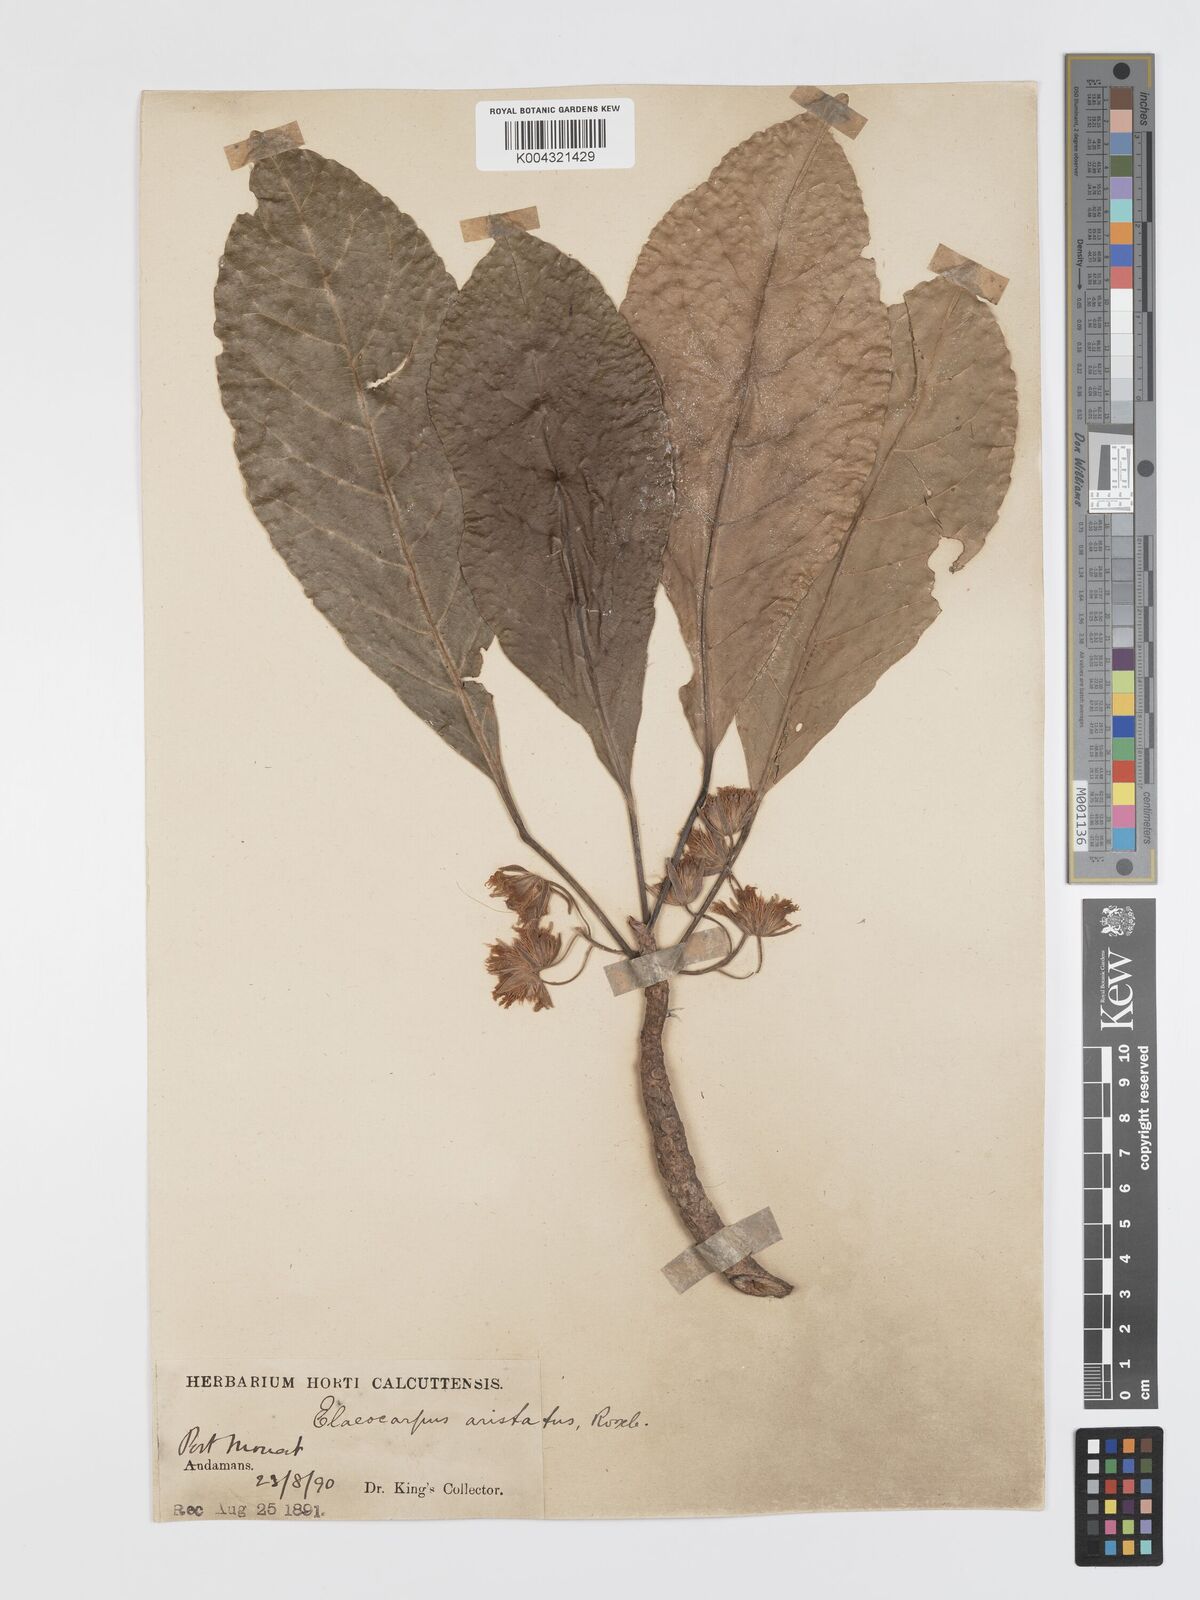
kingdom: Plantae
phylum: Tracheophyta
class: Magnoliopsida
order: Oxalidales
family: Elaeocarpaceae
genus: Elaeocarpus
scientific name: Elaeocarpus
